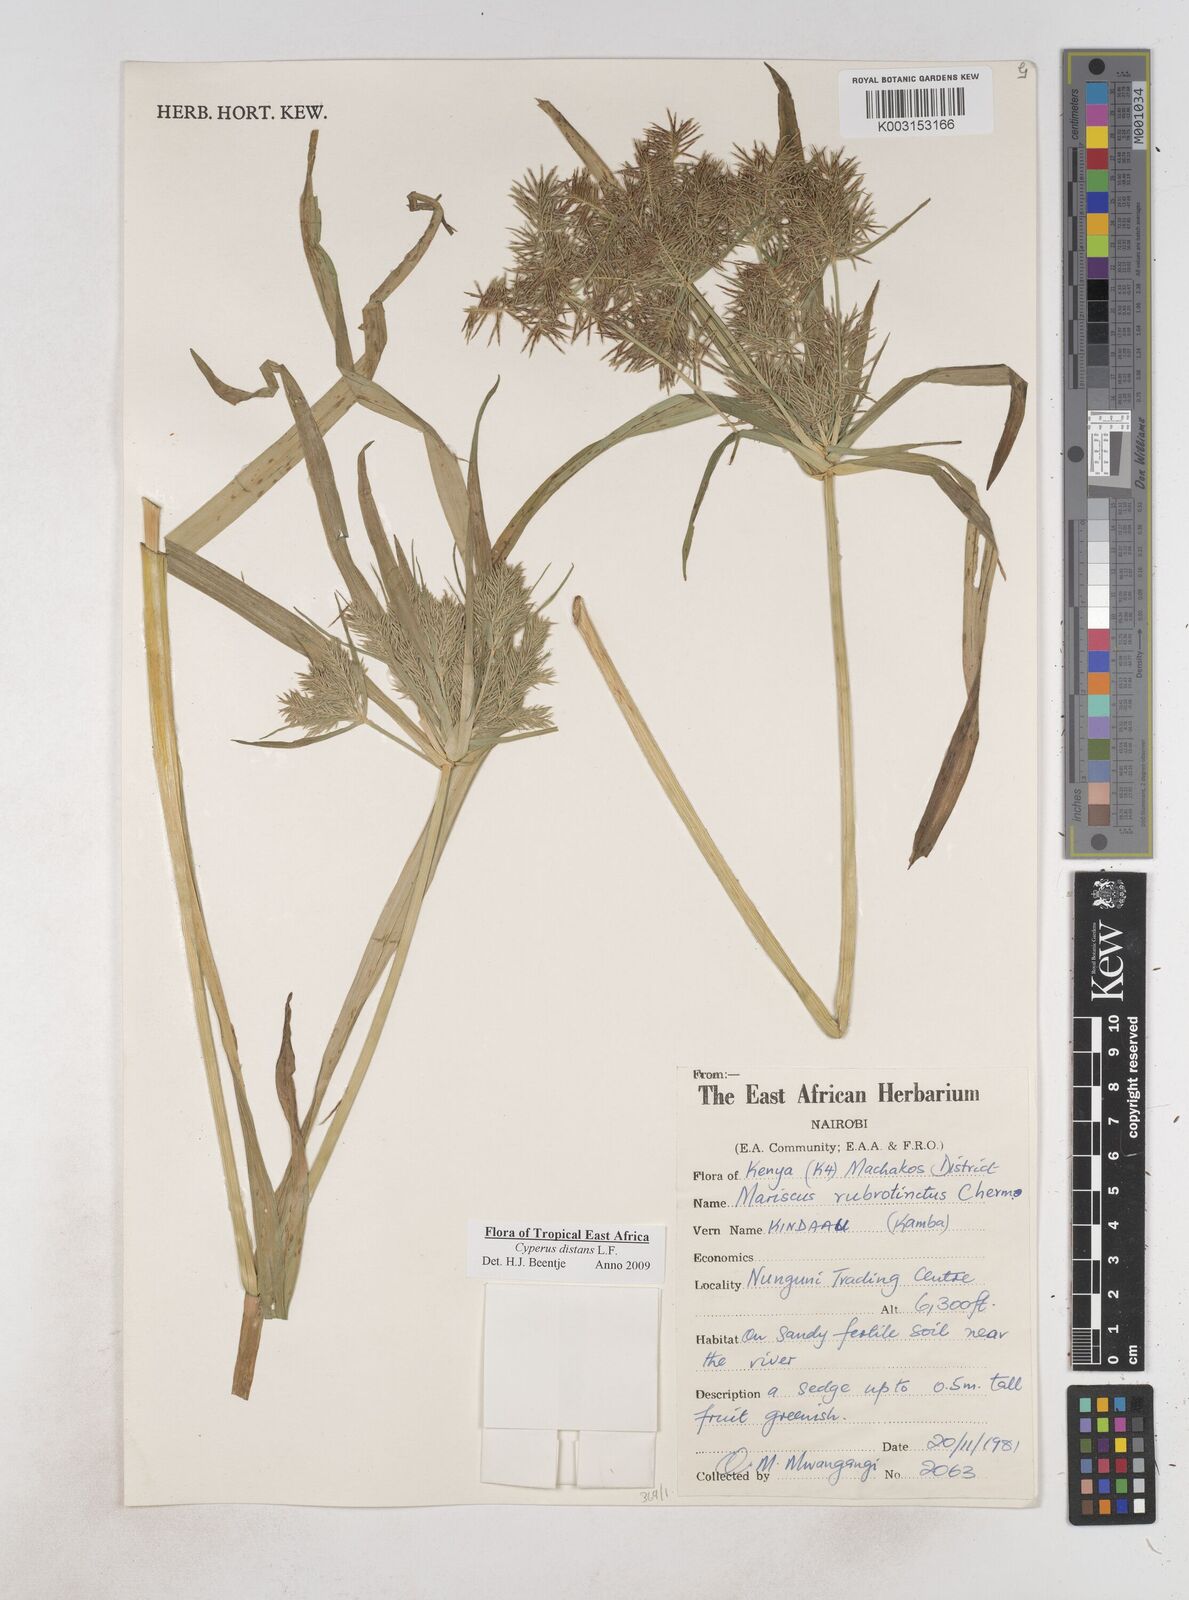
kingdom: Plantae
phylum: Tracheophyta
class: Liliopsida
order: Poales
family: Cyperaceae
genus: Cyperus
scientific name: Cyperus distans
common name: Slender cyperus
